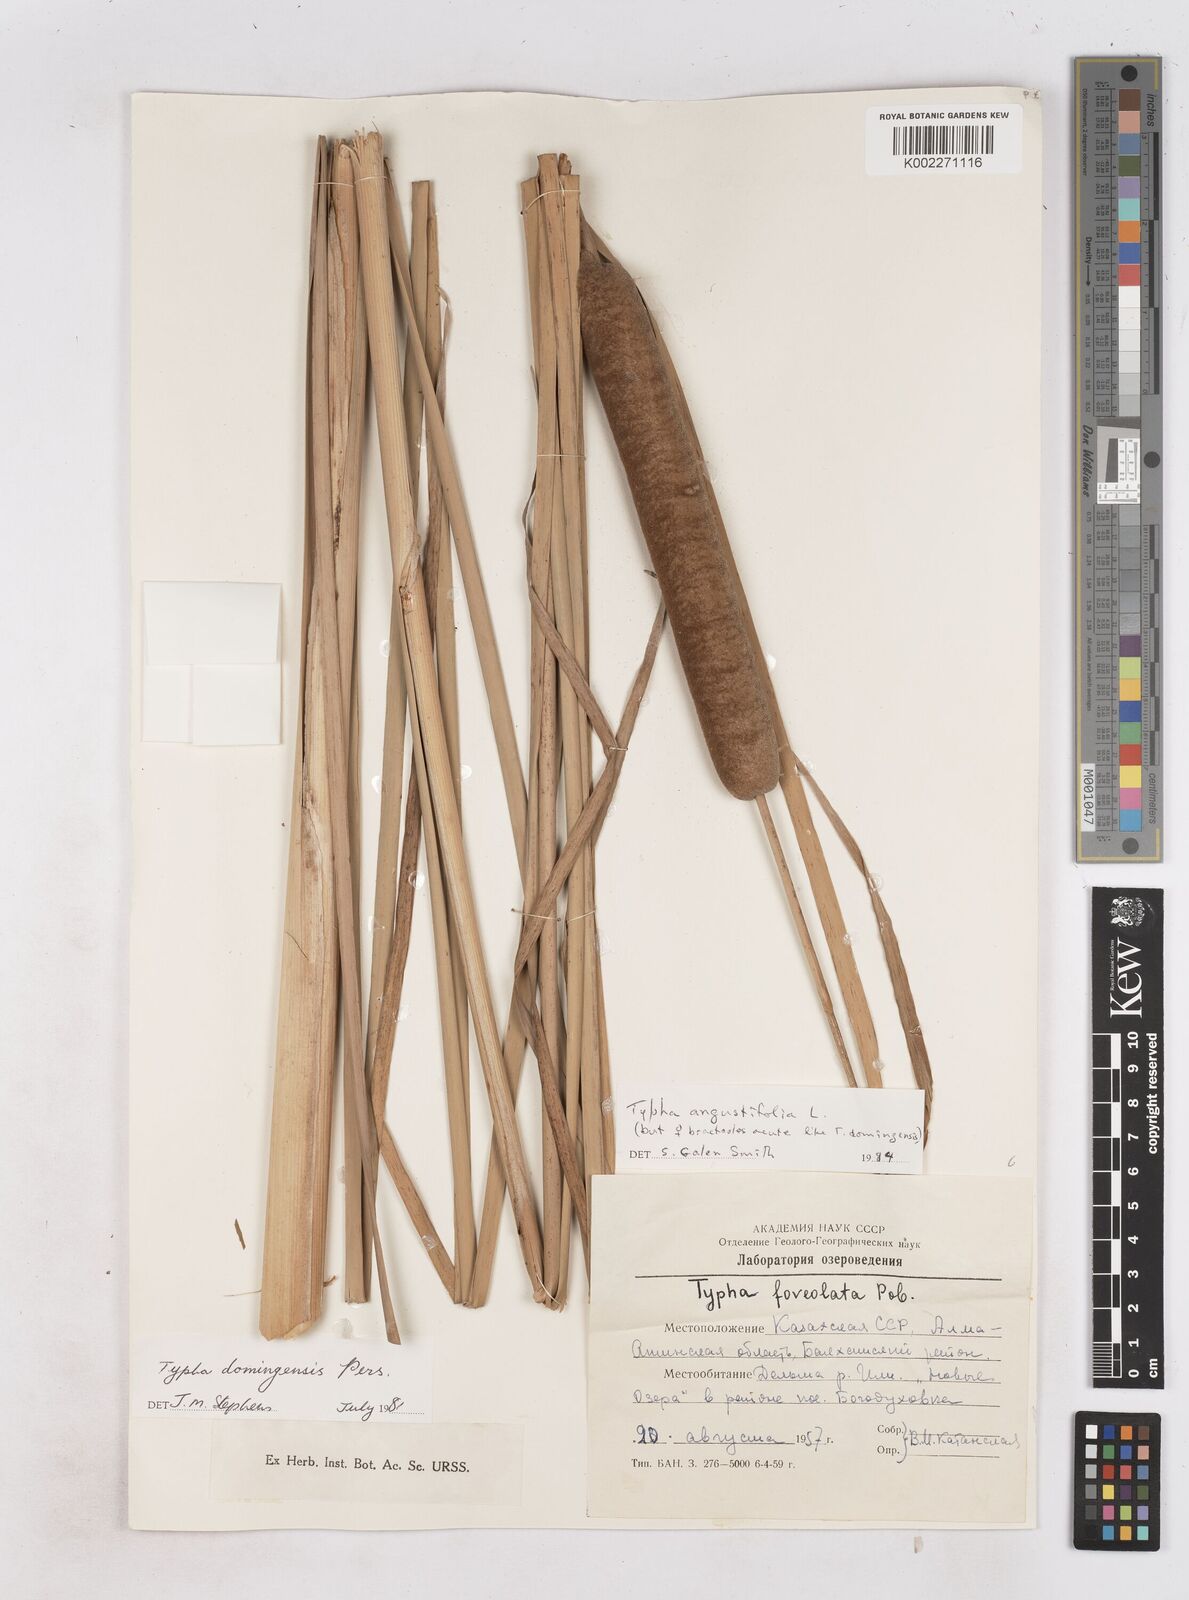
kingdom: Plantae
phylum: Tracheophyta
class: Liliopsida
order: Poales
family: Typhaceae
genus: Typha
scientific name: Typha angustifolia
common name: Lesser bulrush
